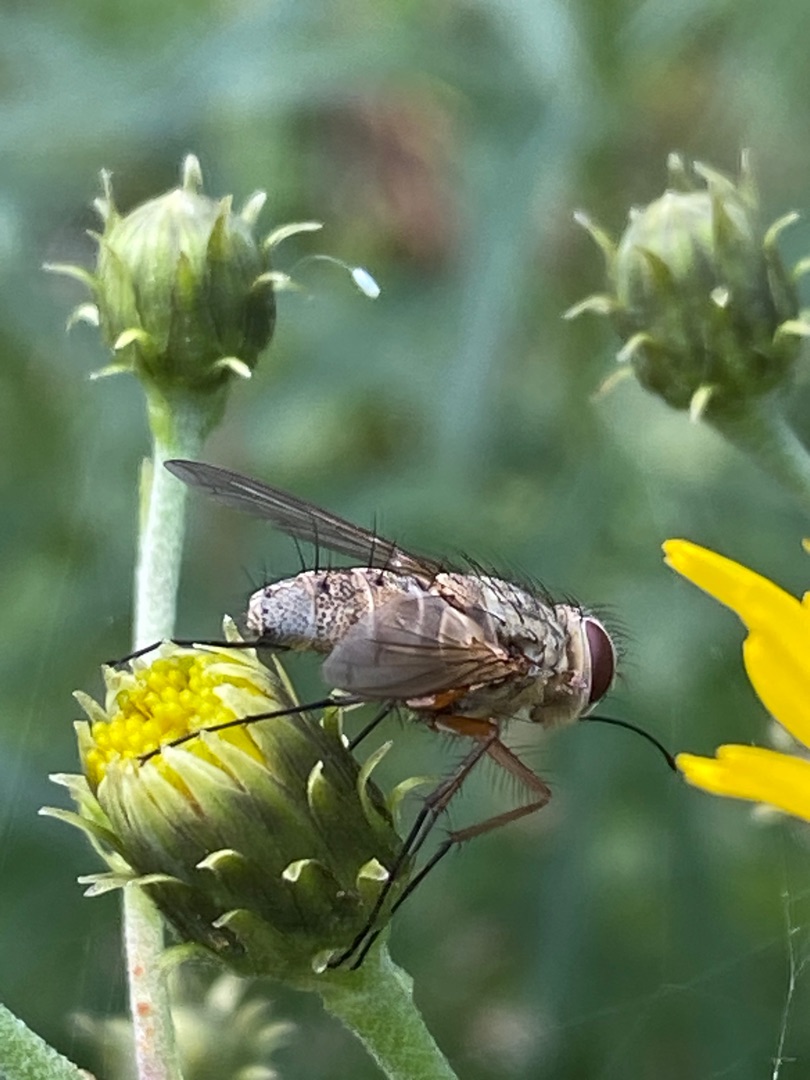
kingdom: Animalia
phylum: Arthropoda
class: Insecta
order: Diptera
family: Tachinidae
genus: Prosena
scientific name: Prosena siberita
